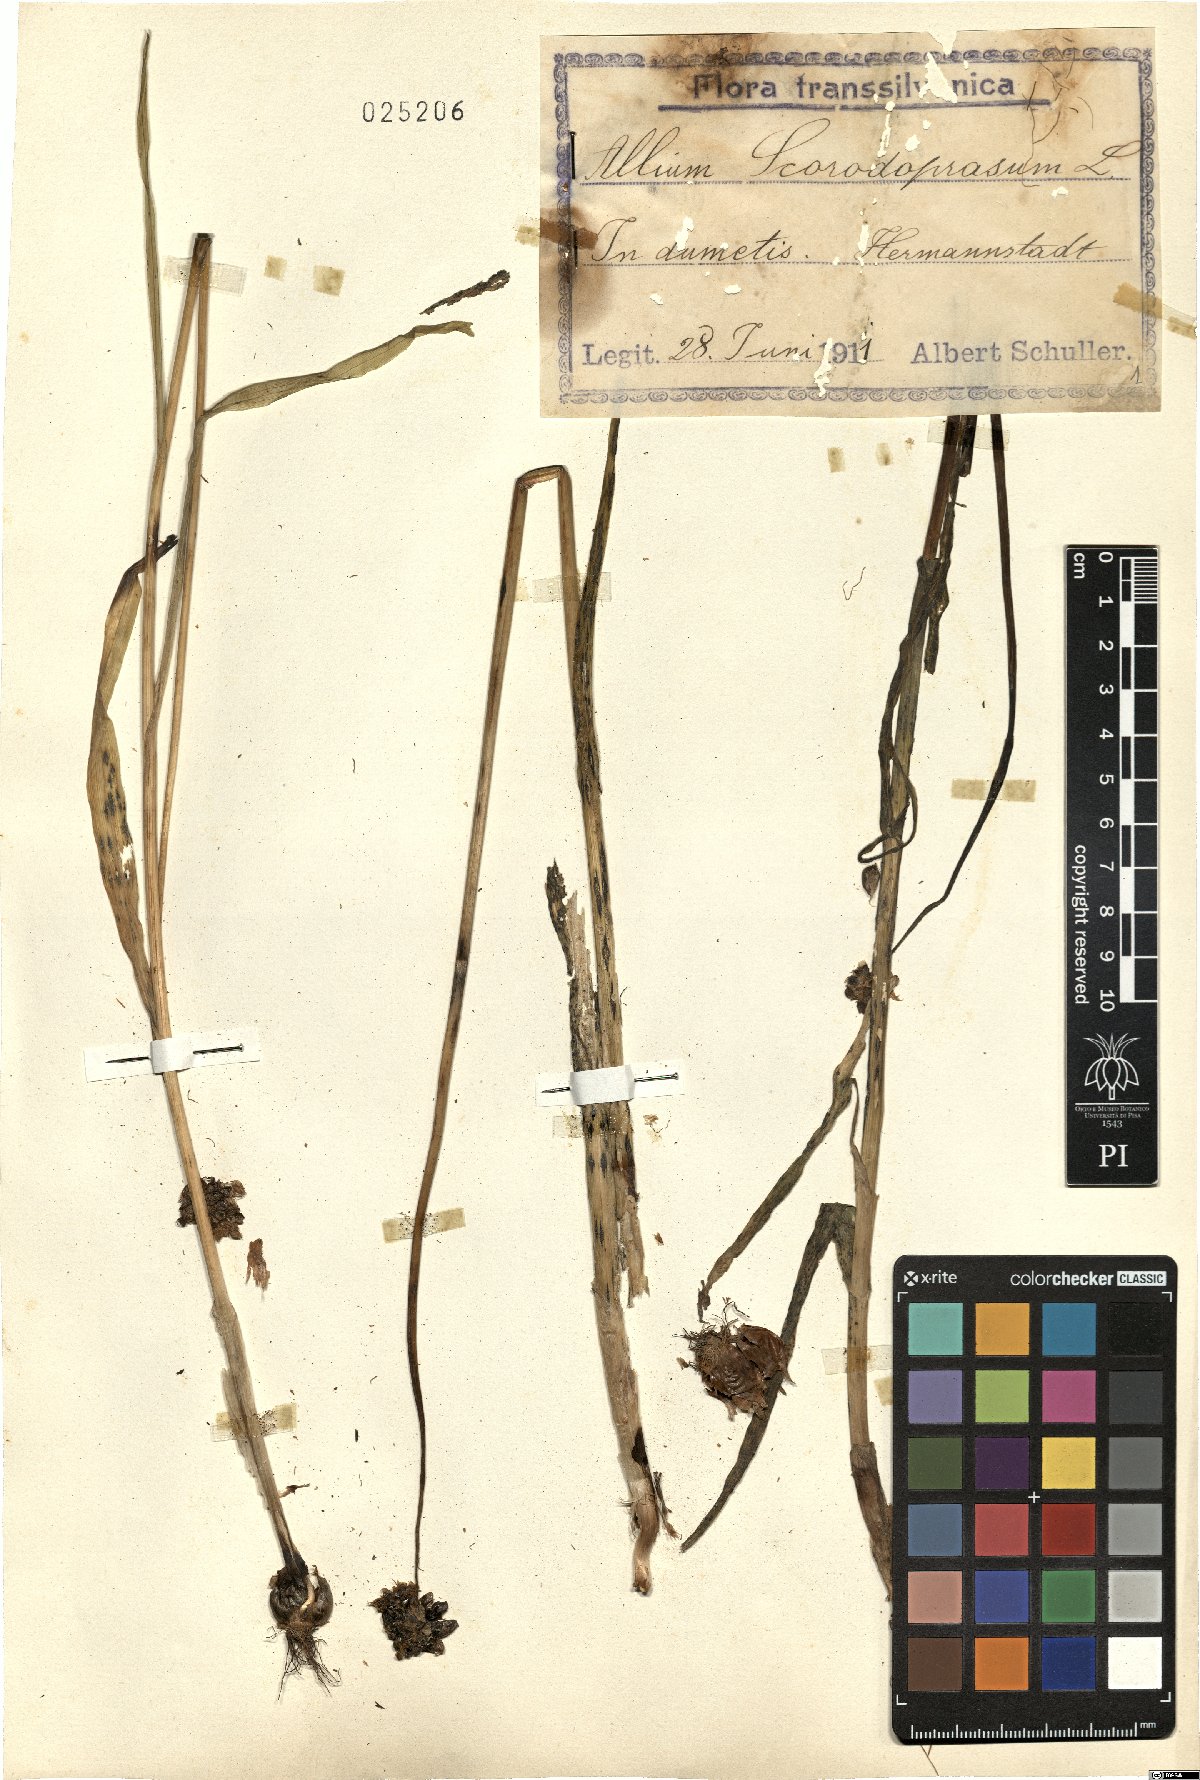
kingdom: Plantae
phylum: Tracheophyta
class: Liliopsida
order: Asparagales
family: Amaryllidaceae
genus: Allium
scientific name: Allium scorodoprasum
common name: Sand leek
